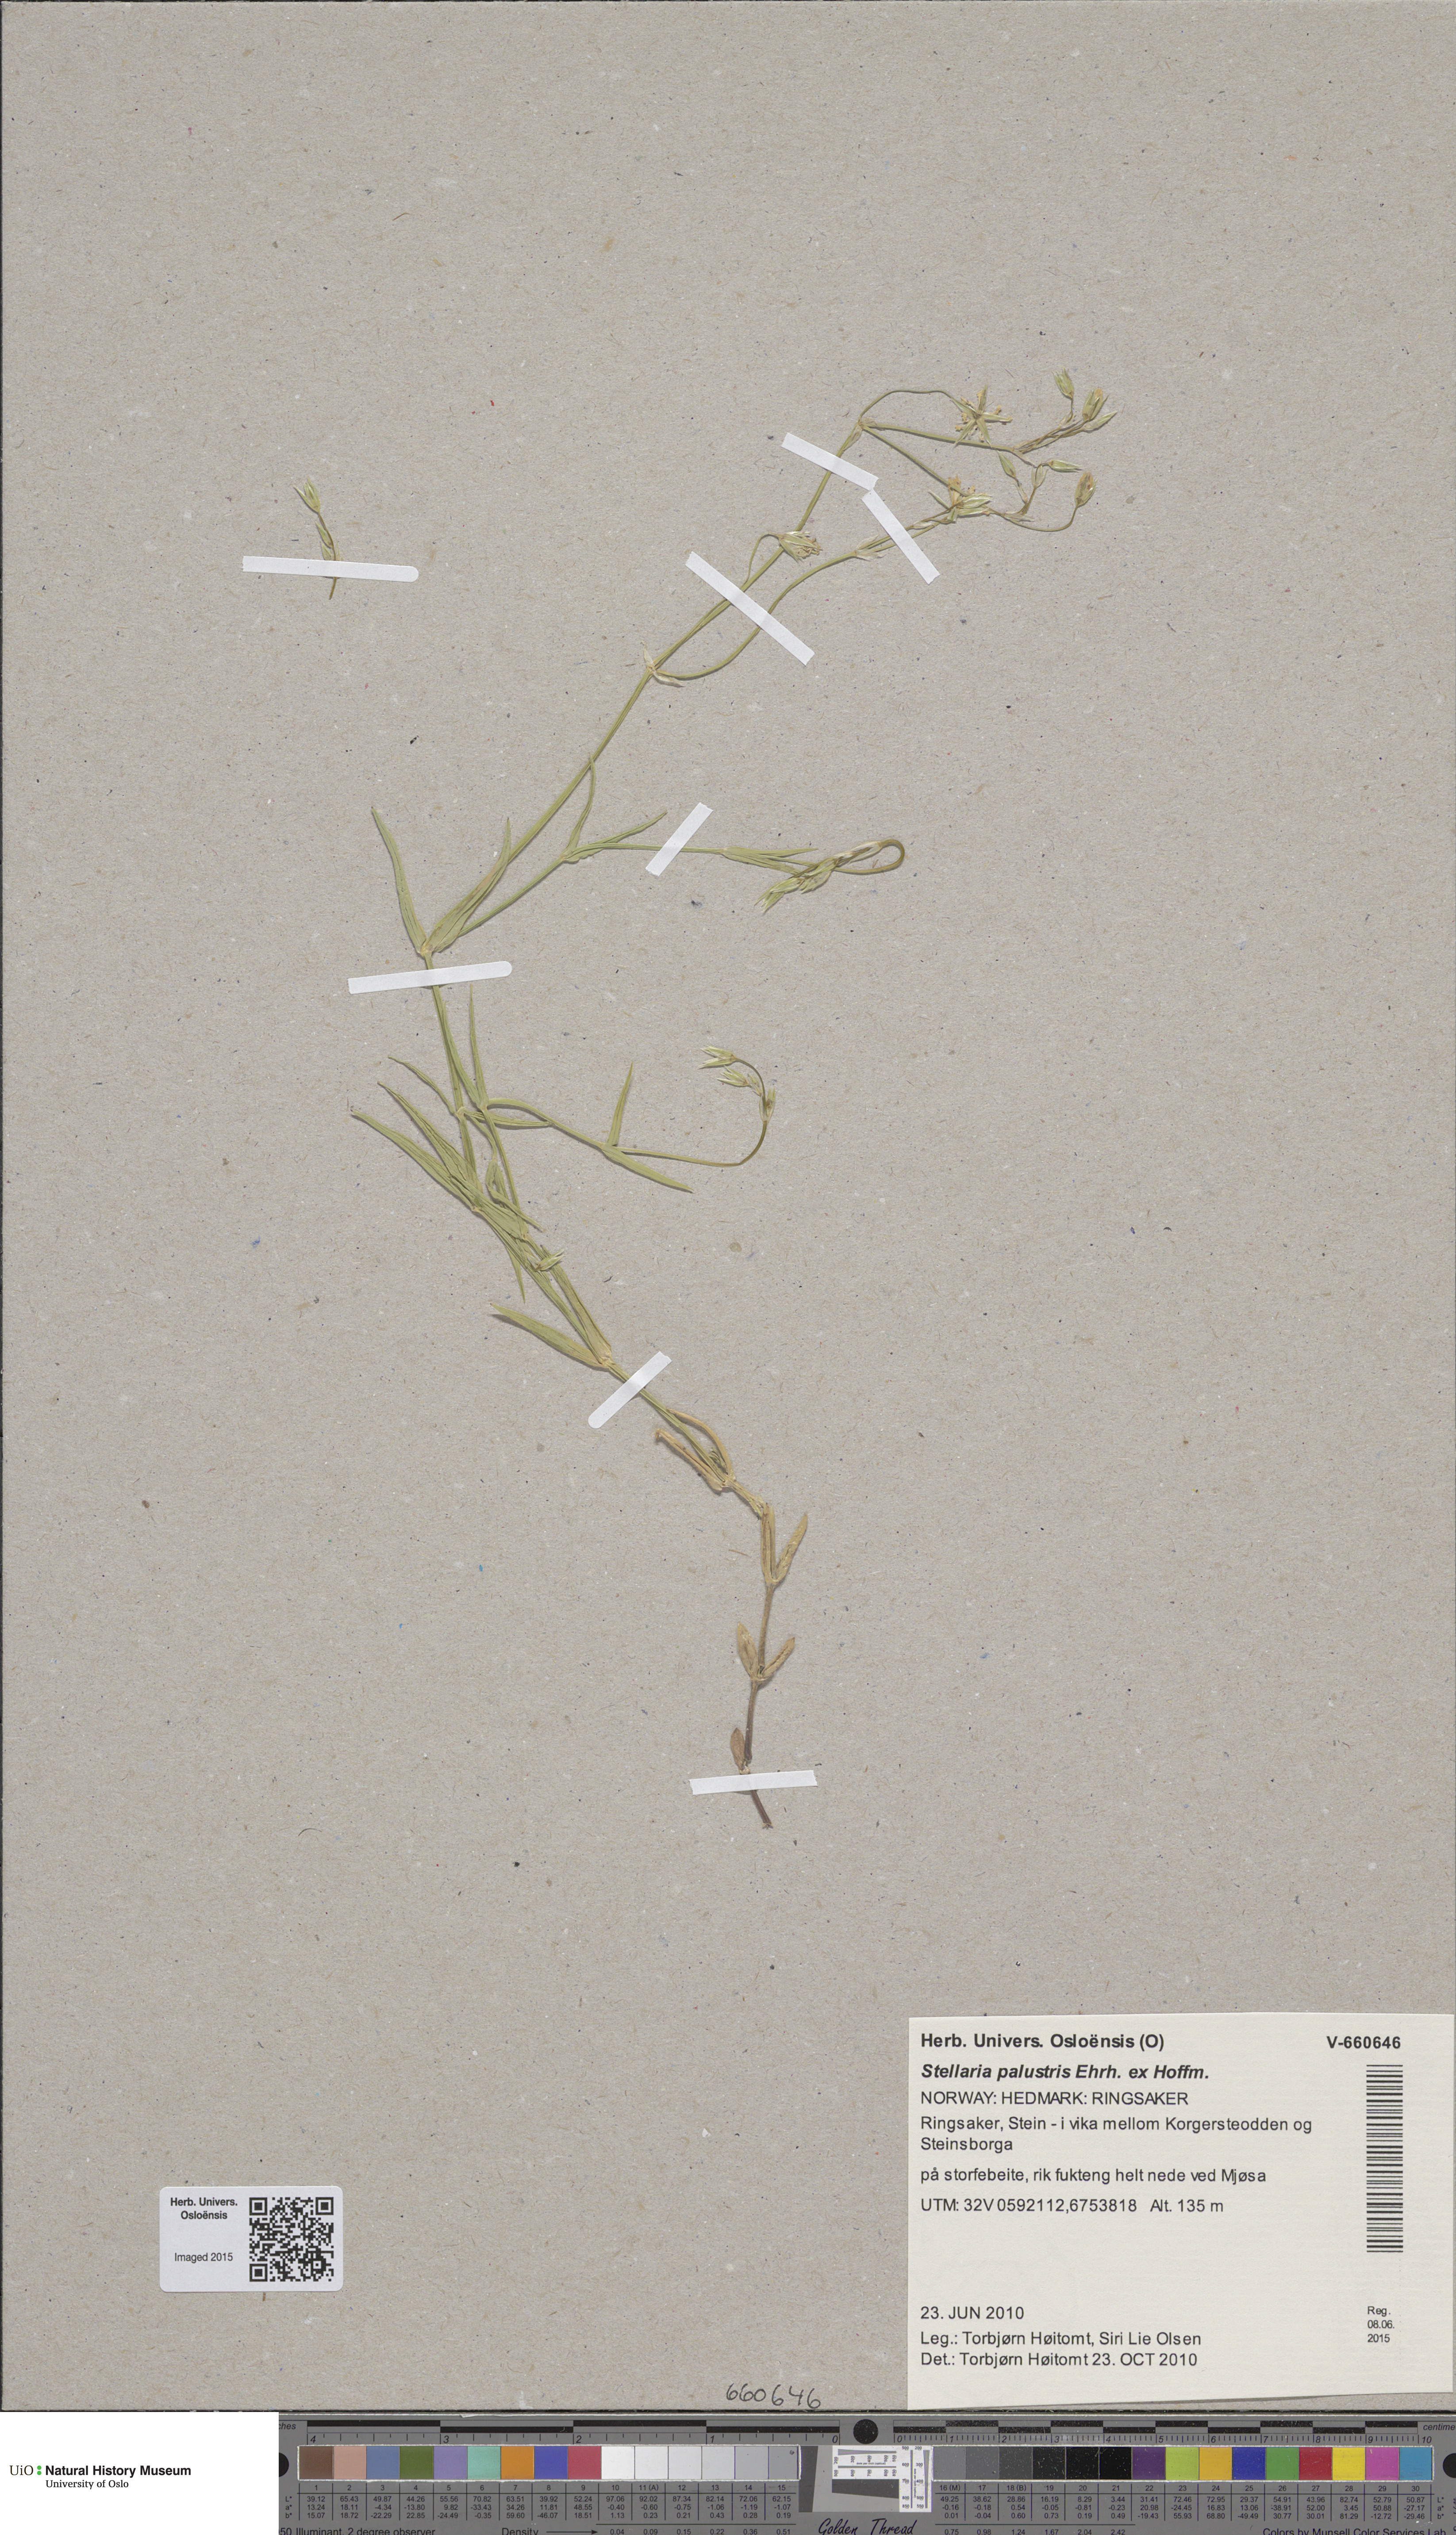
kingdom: Plantae
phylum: Tracheophyta
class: Magnoliopsida
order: Caryophyllales
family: Caryophyllaceae
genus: Stellaria
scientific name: Stellaria palustris
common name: Marsh stitchwort
